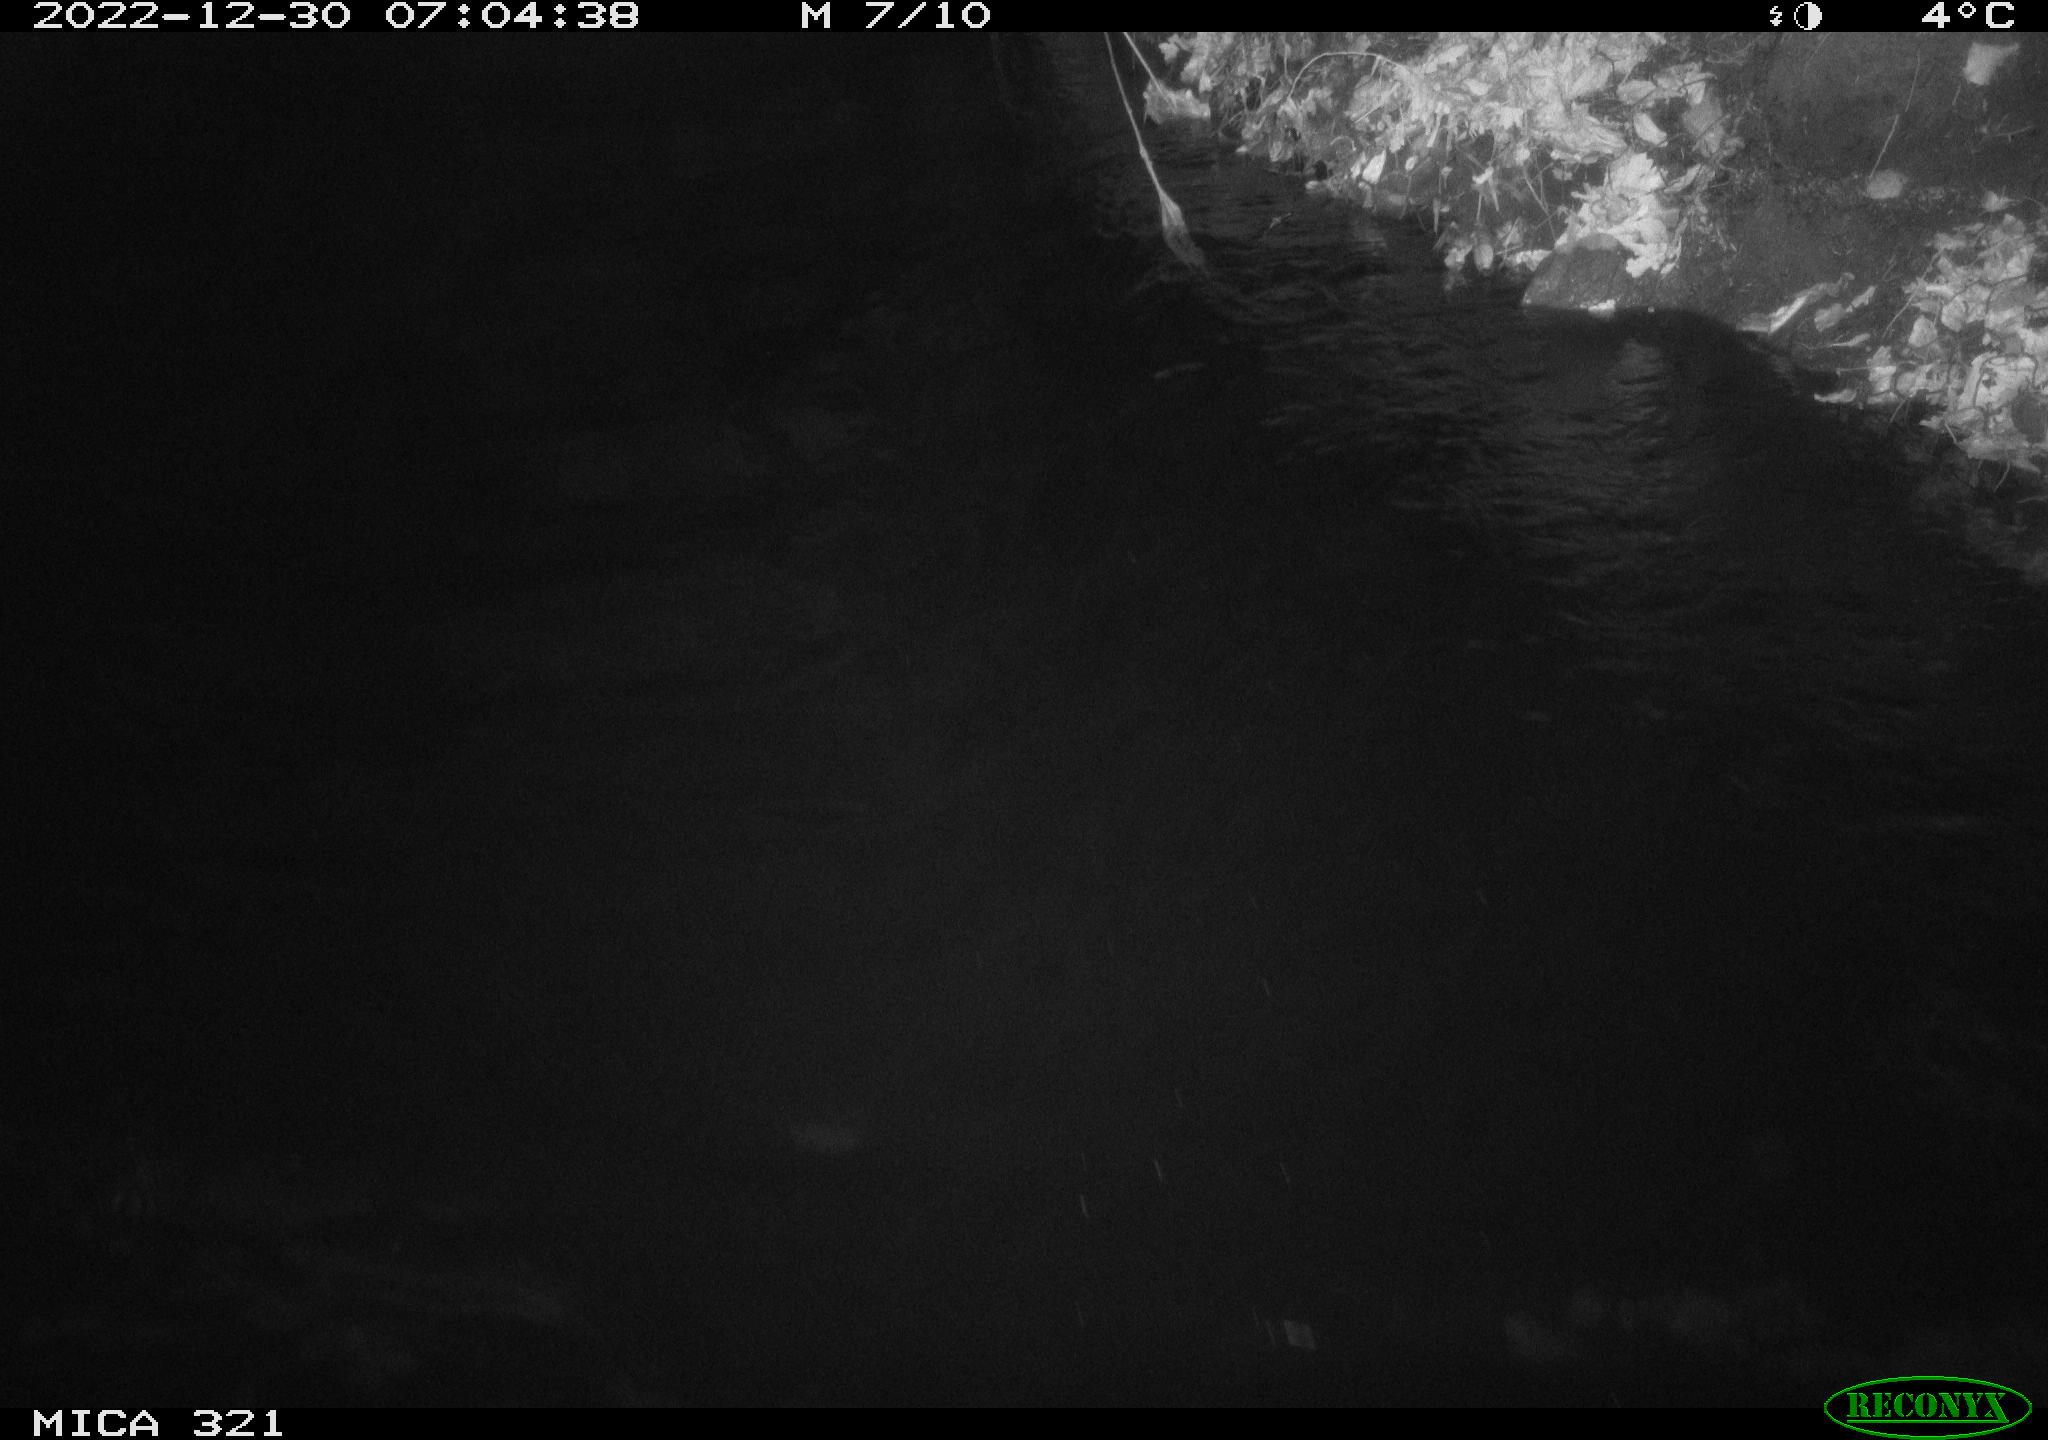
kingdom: Animalia
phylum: Chordata
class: Aves
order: Anseriformes
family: Anatidae
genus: Anas
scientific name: Anas
